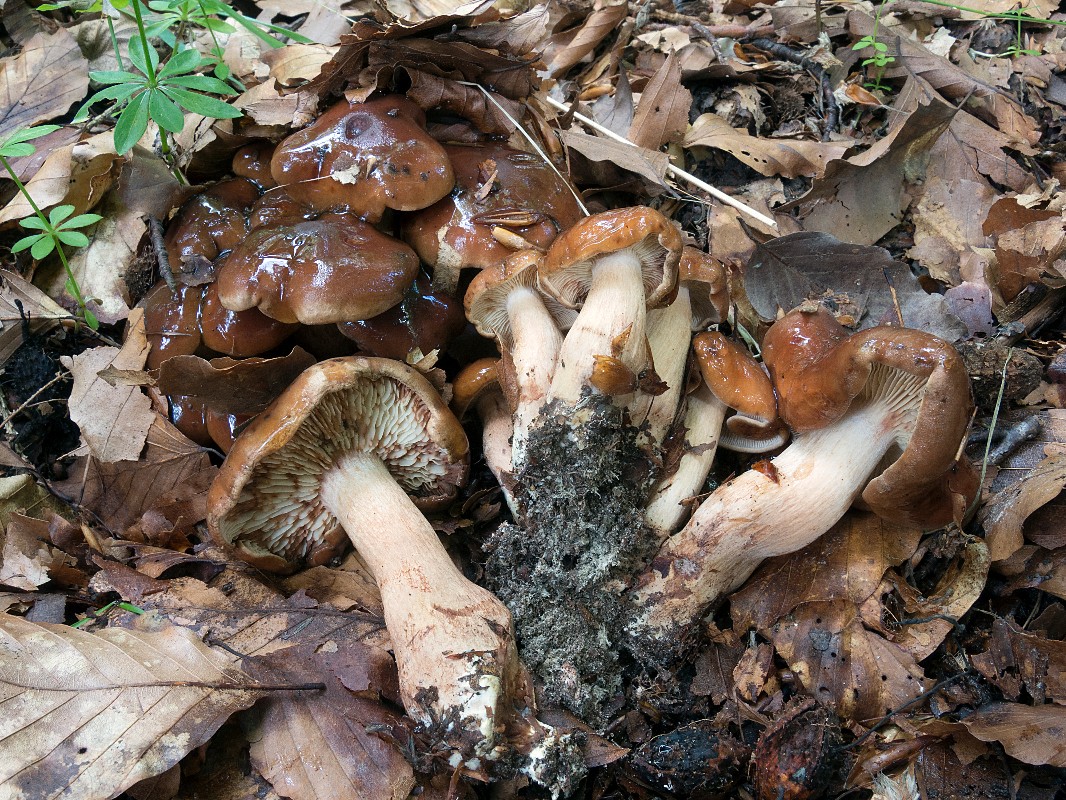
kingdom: Fungi
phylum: Basidiomycota
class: Agaricomycetes
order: Agaricales
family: Tricholomataceae
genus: Tricholoma
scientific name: Tricholoma ustale
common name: sveden ridderhat
